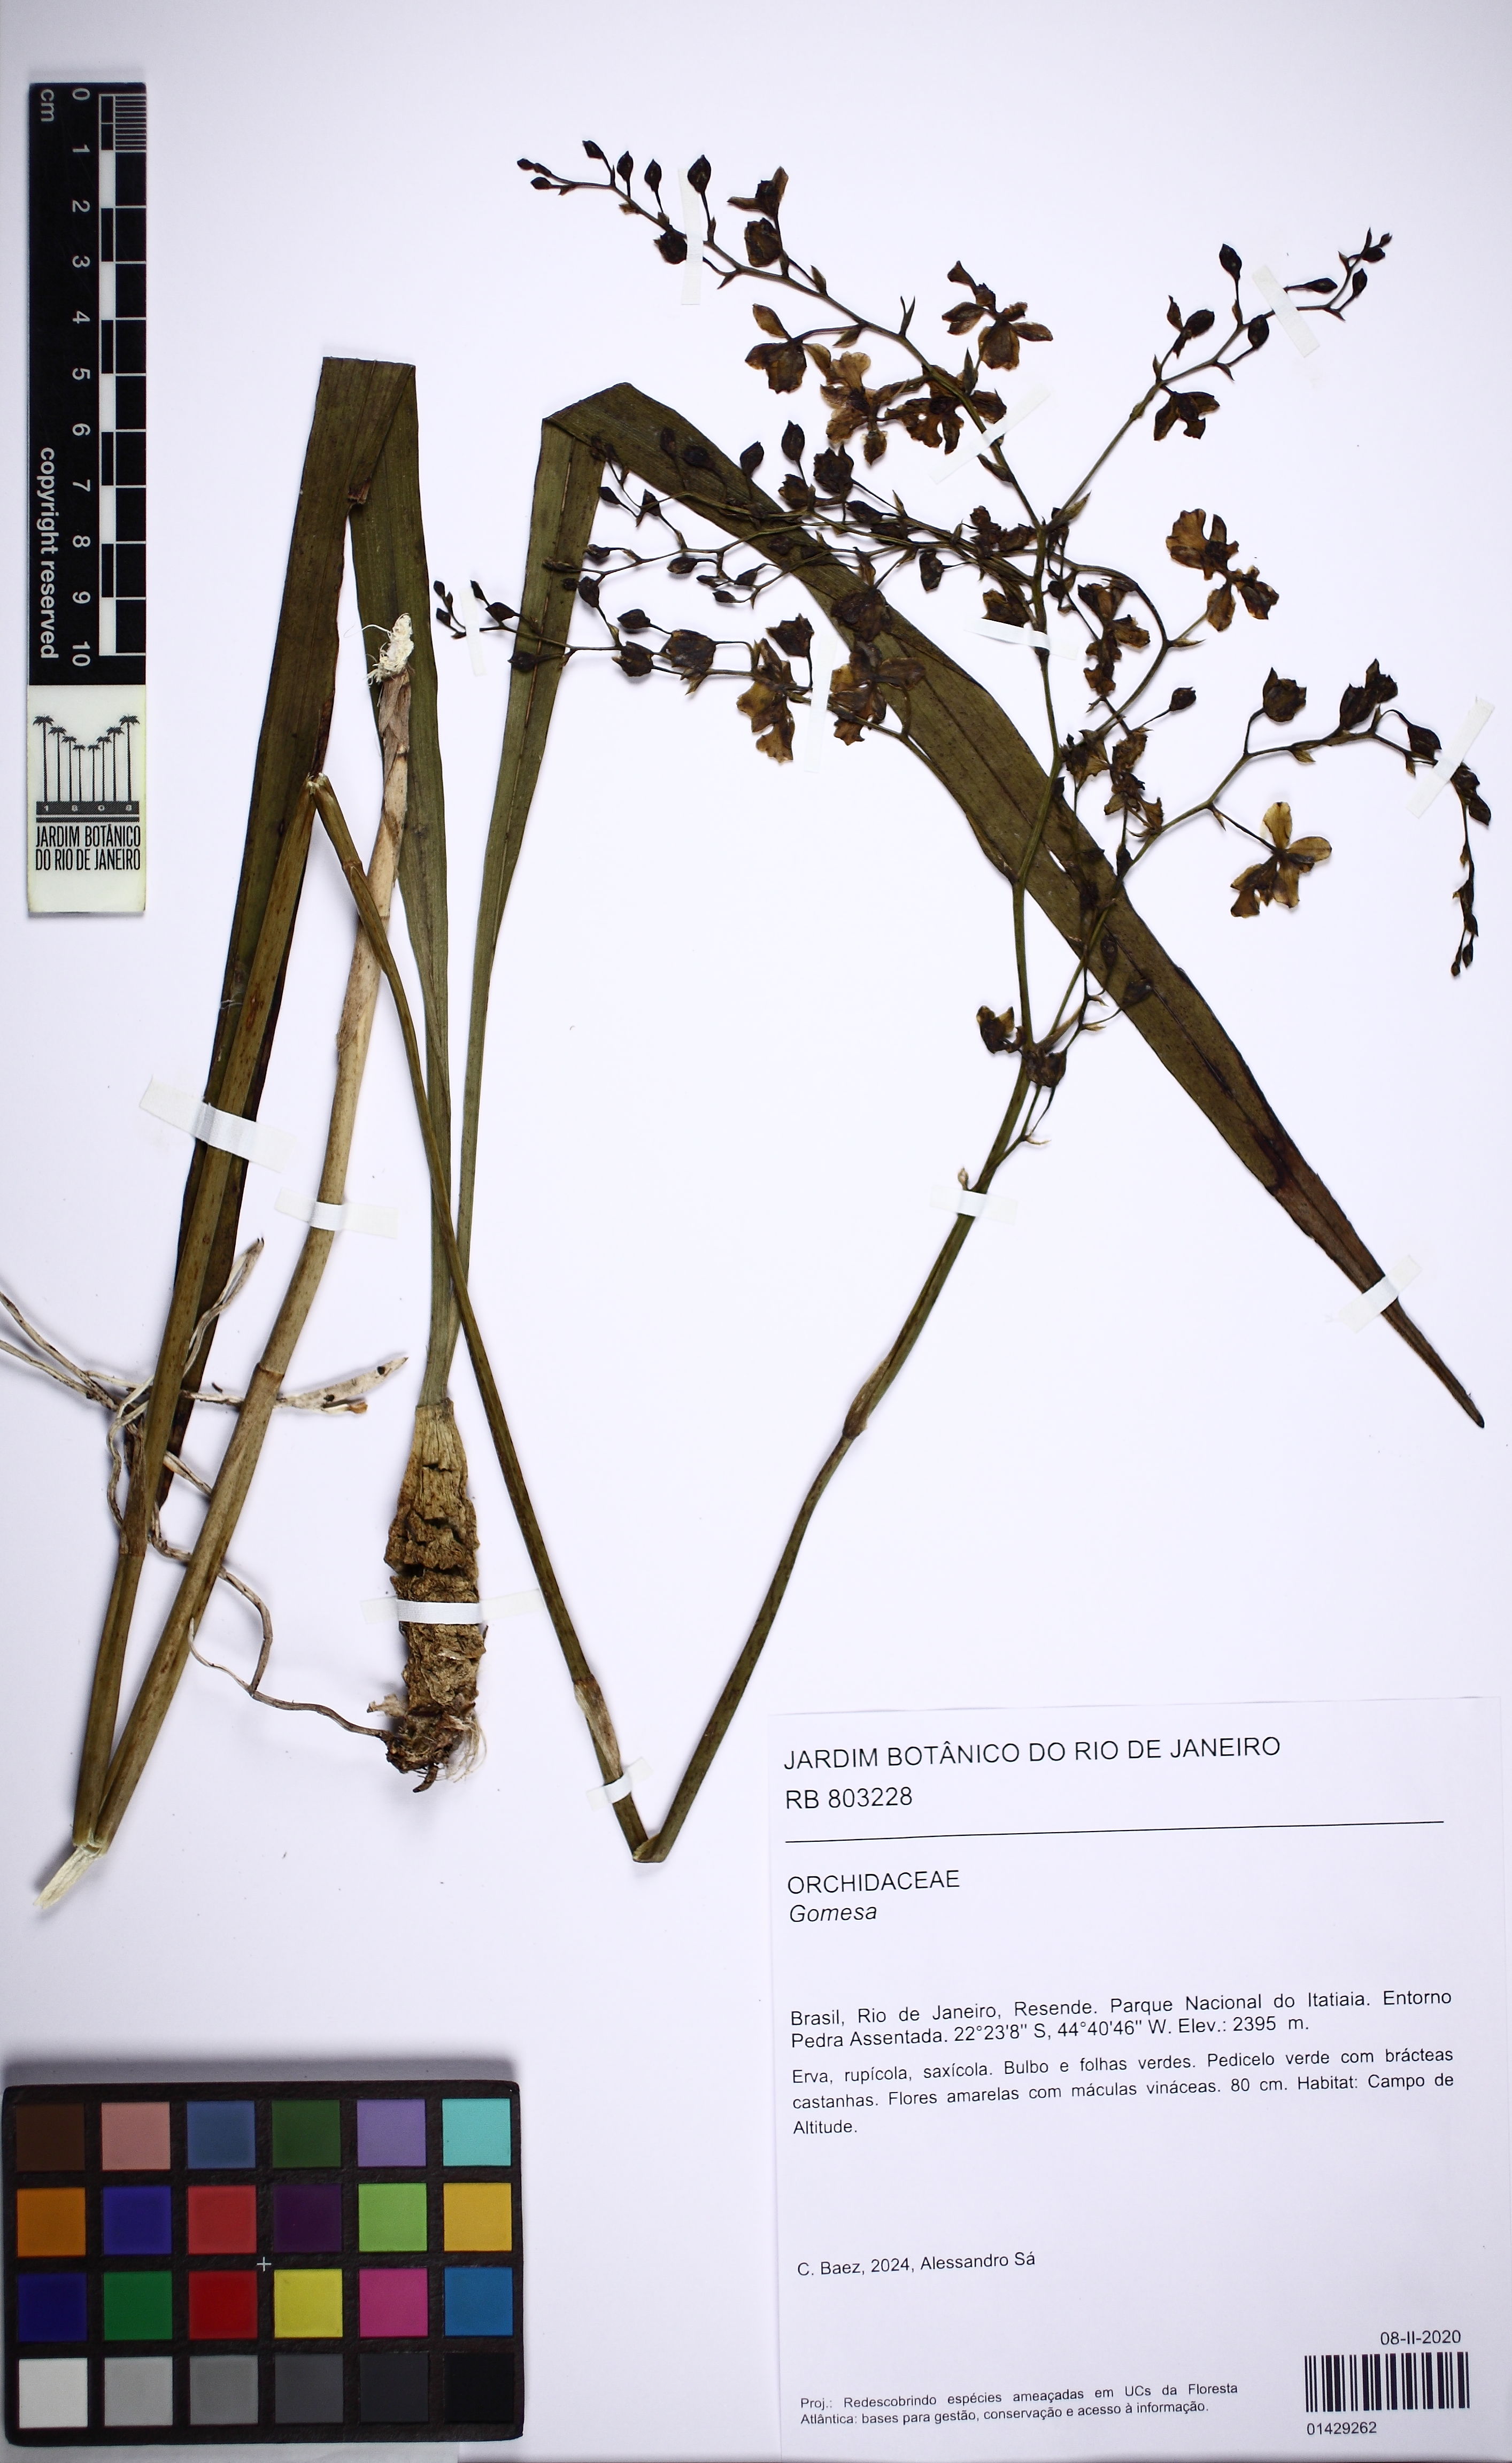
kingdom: Plantae
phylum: Tracheophyta
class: Liliopsida
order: Asparagales
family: Orchidaceae
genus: Gomesa
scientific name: Gomesa
